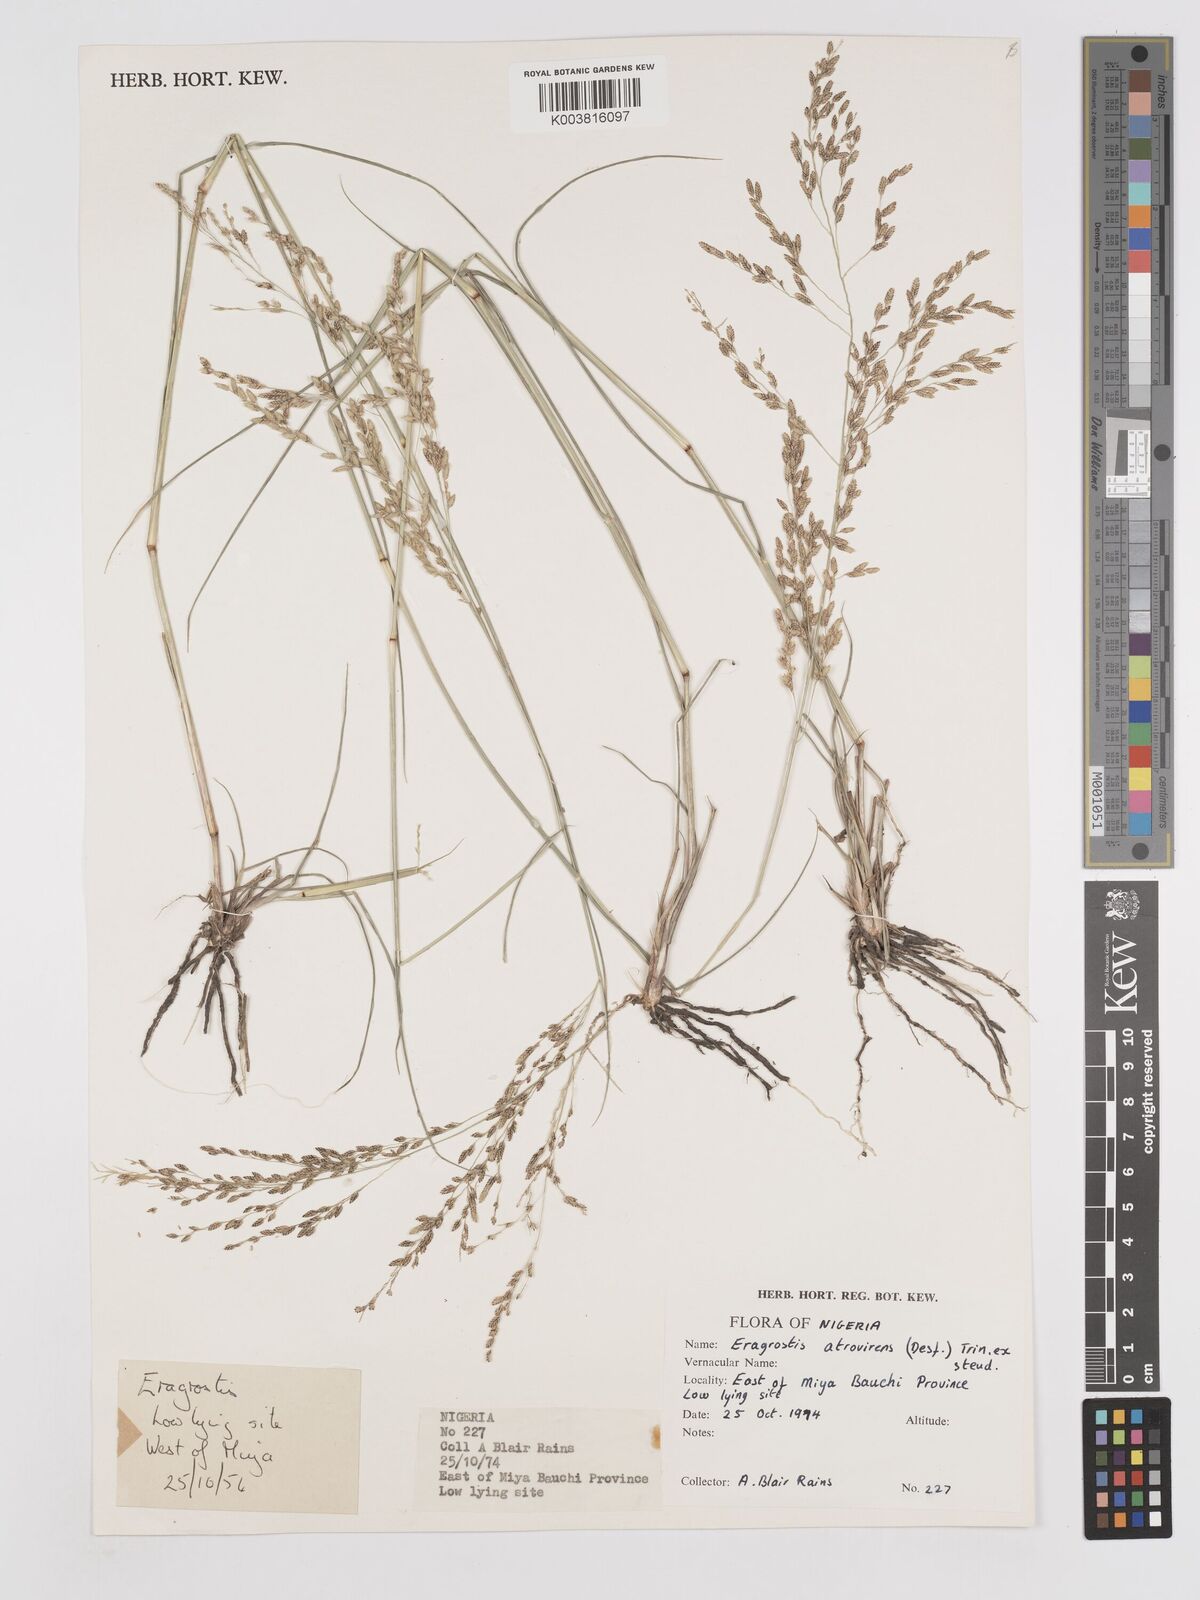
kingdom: Plantae
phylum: Tracheophyta
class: Liliopsida
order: Poales
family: Poaceae
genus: Eragrostis
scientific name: Eragrostis atrovirens
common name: Thalia lovegrass
